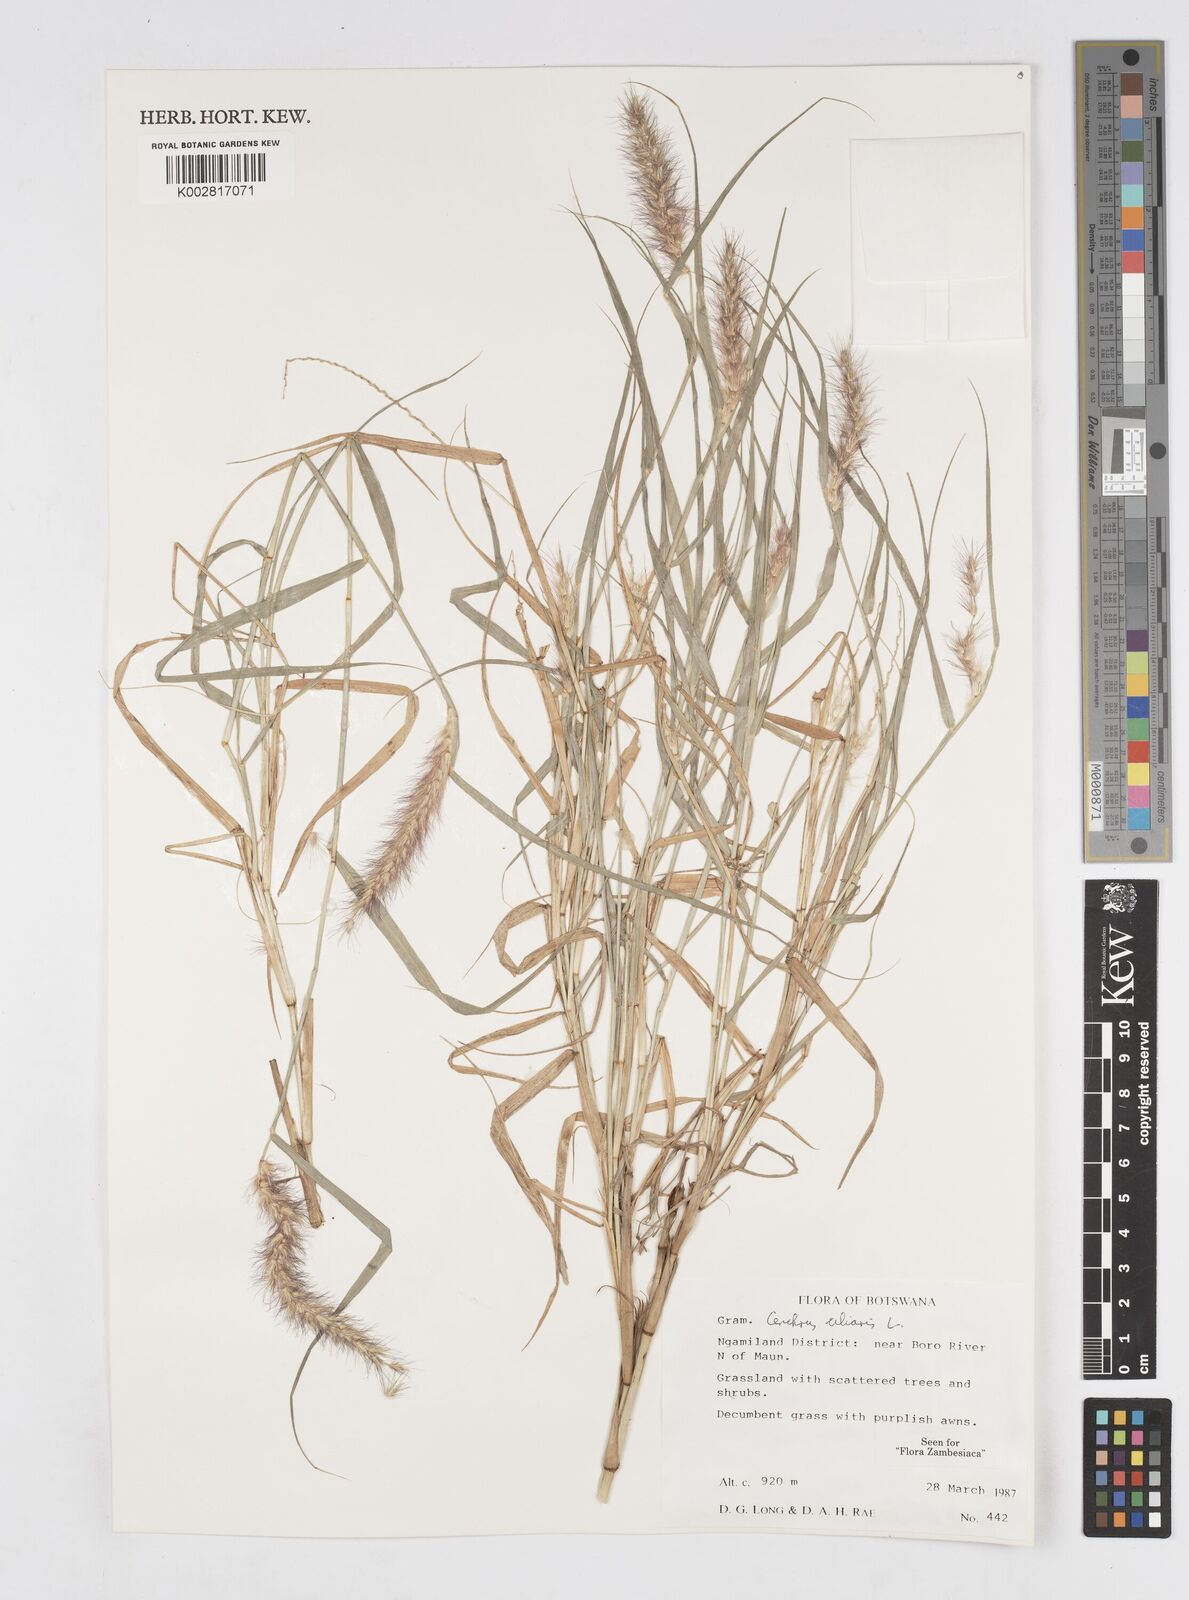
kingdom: Plantae
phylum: Tracheophyta
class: Liliopsida
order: Poales
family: Poaceae
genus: Cenchrus
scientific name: Cenchrus ciliaris
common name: Buffelgrass
